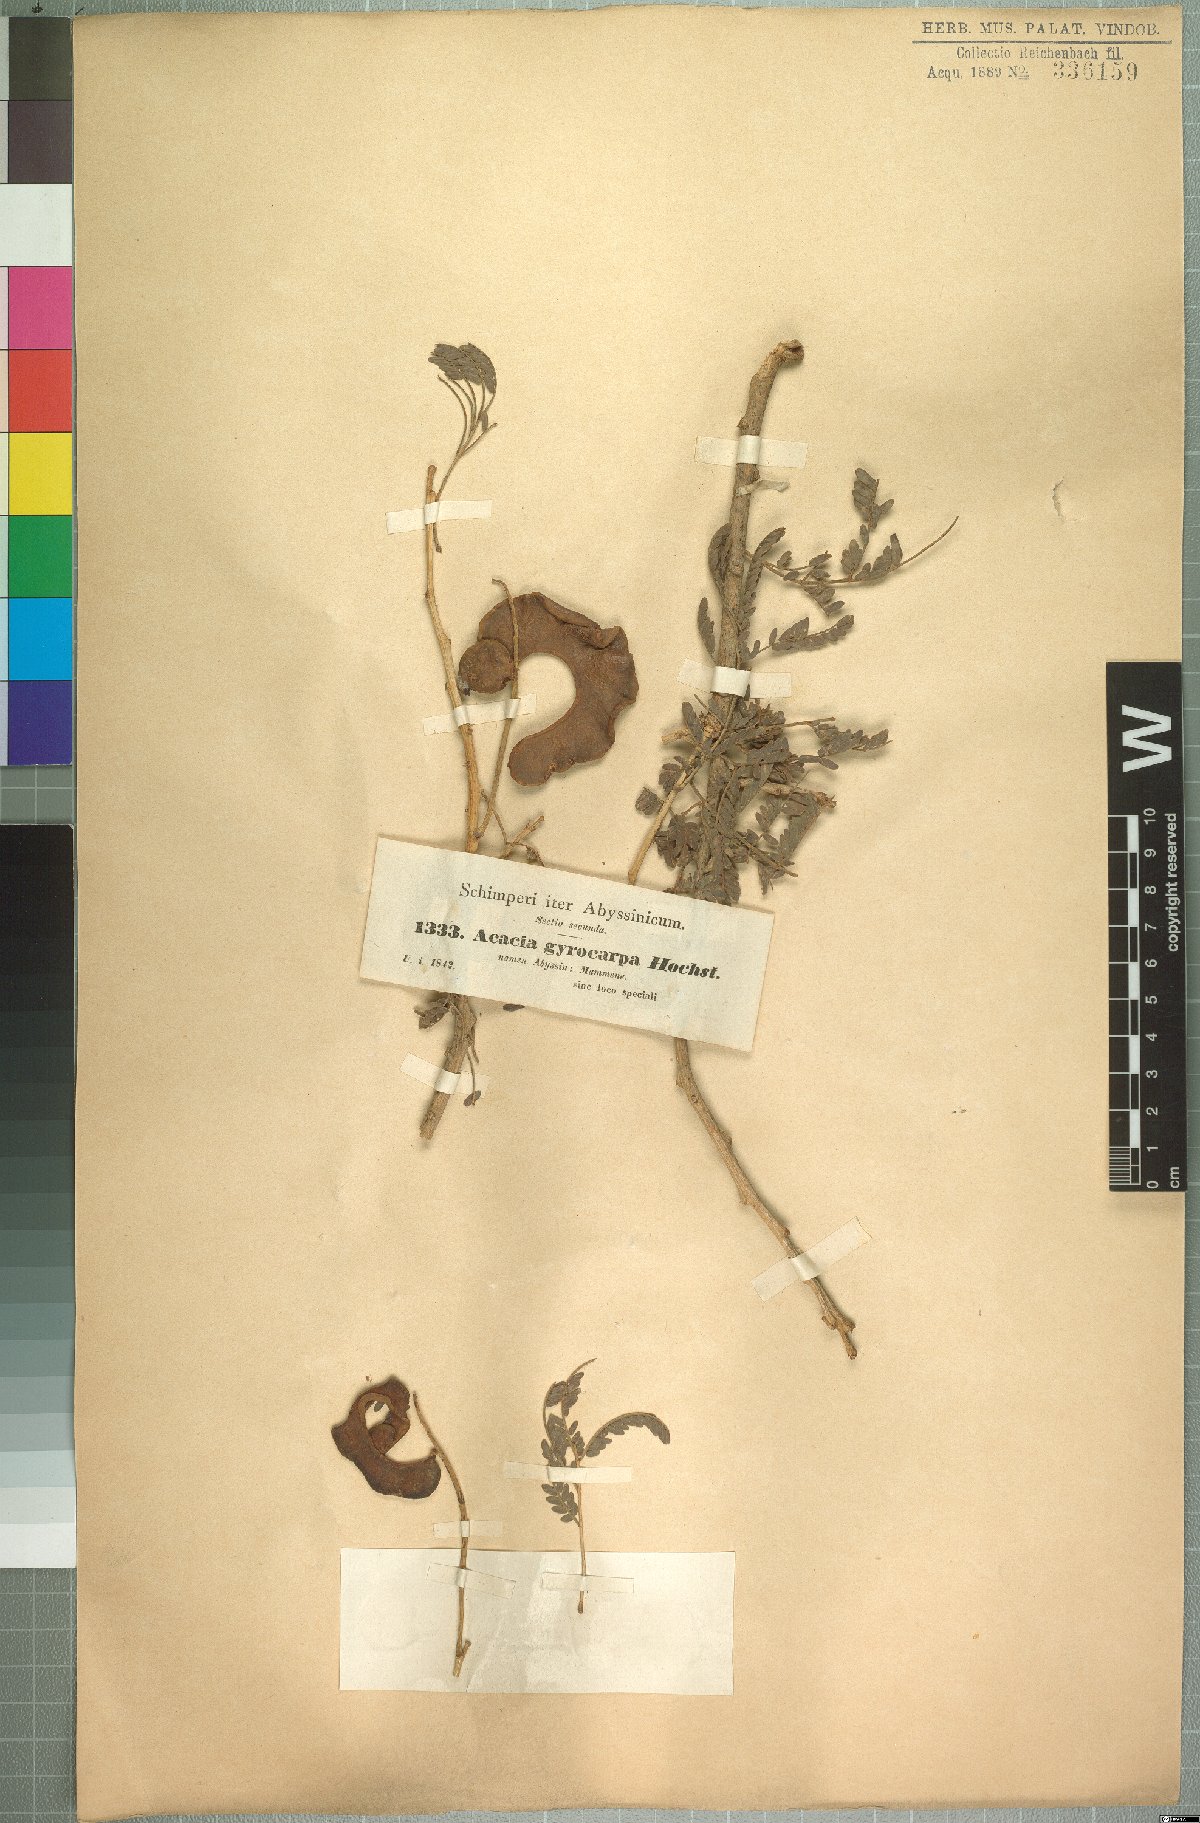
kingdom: Plantae
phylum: Tracheophyta
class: Magnoliopsida
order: Fabales
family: Fabaceae
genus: Faidherbia
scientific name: Faidherbia albida
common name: Anatree
